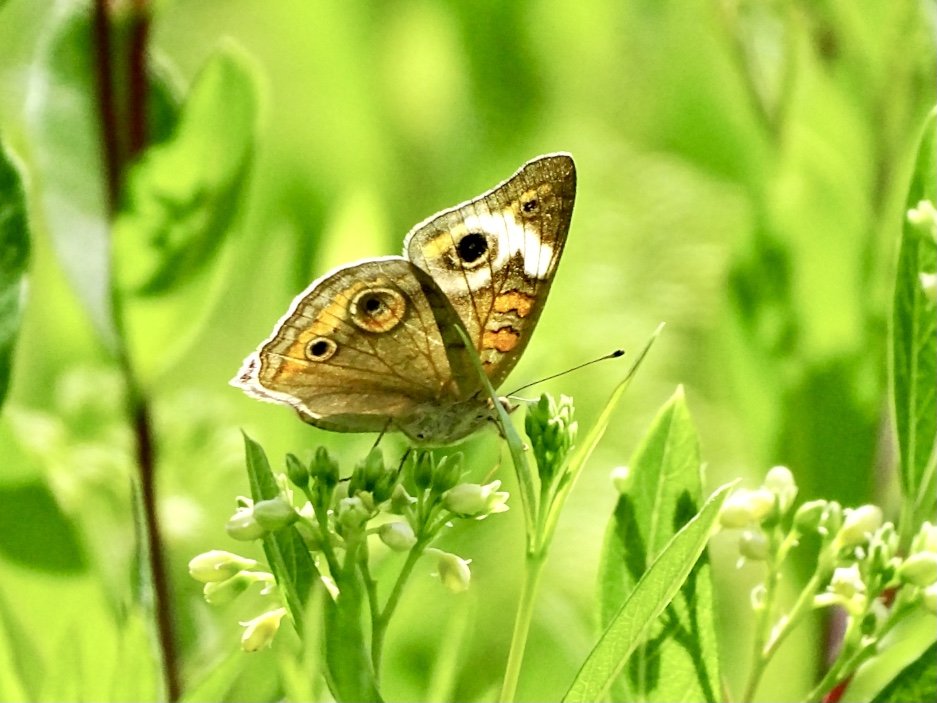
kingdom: Animalia
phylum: Arthropoda
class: Insecta
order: Lepidoptera
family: Nymphalidae
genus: Junonia
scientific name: Junonia coenia
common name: Common Buckeye
